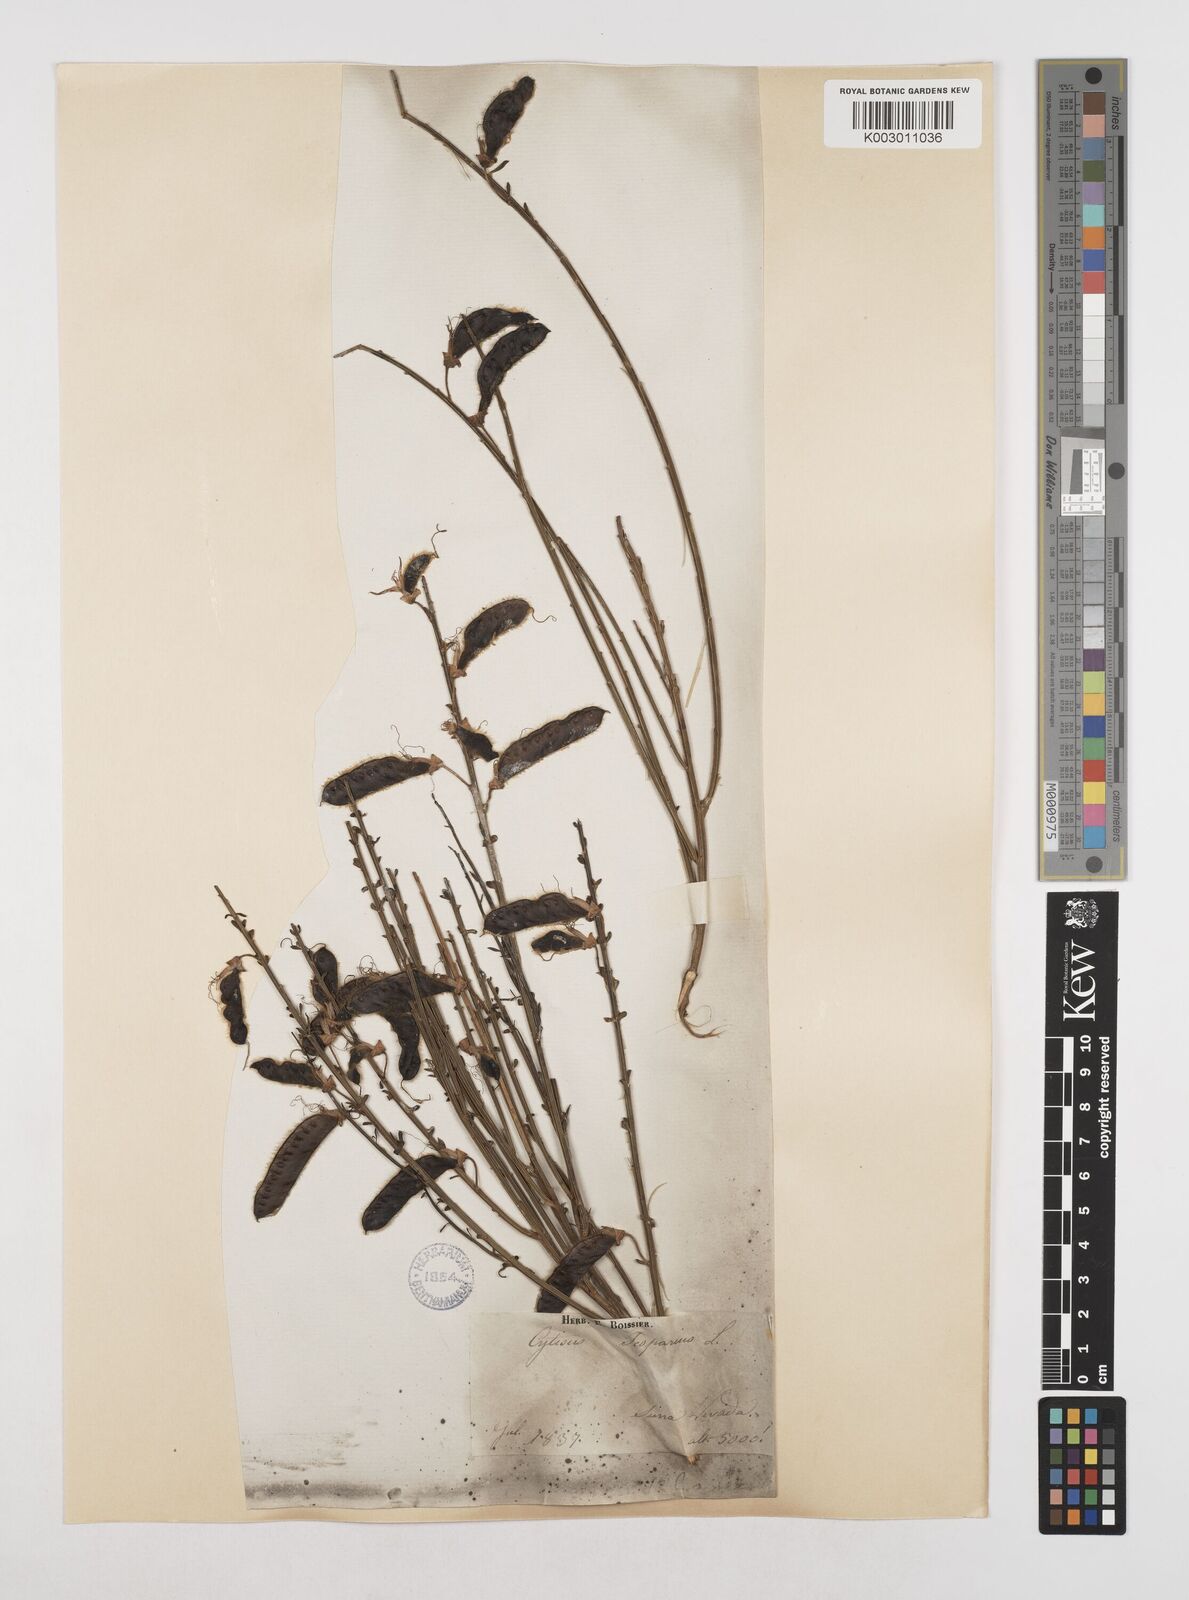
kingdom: Plantae
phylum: Tracheophyta
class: Magnoliopsida
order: Fabales
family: Fabaceae
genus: Cytisus
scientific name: Cytisus scoparius
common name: Scotch broom
